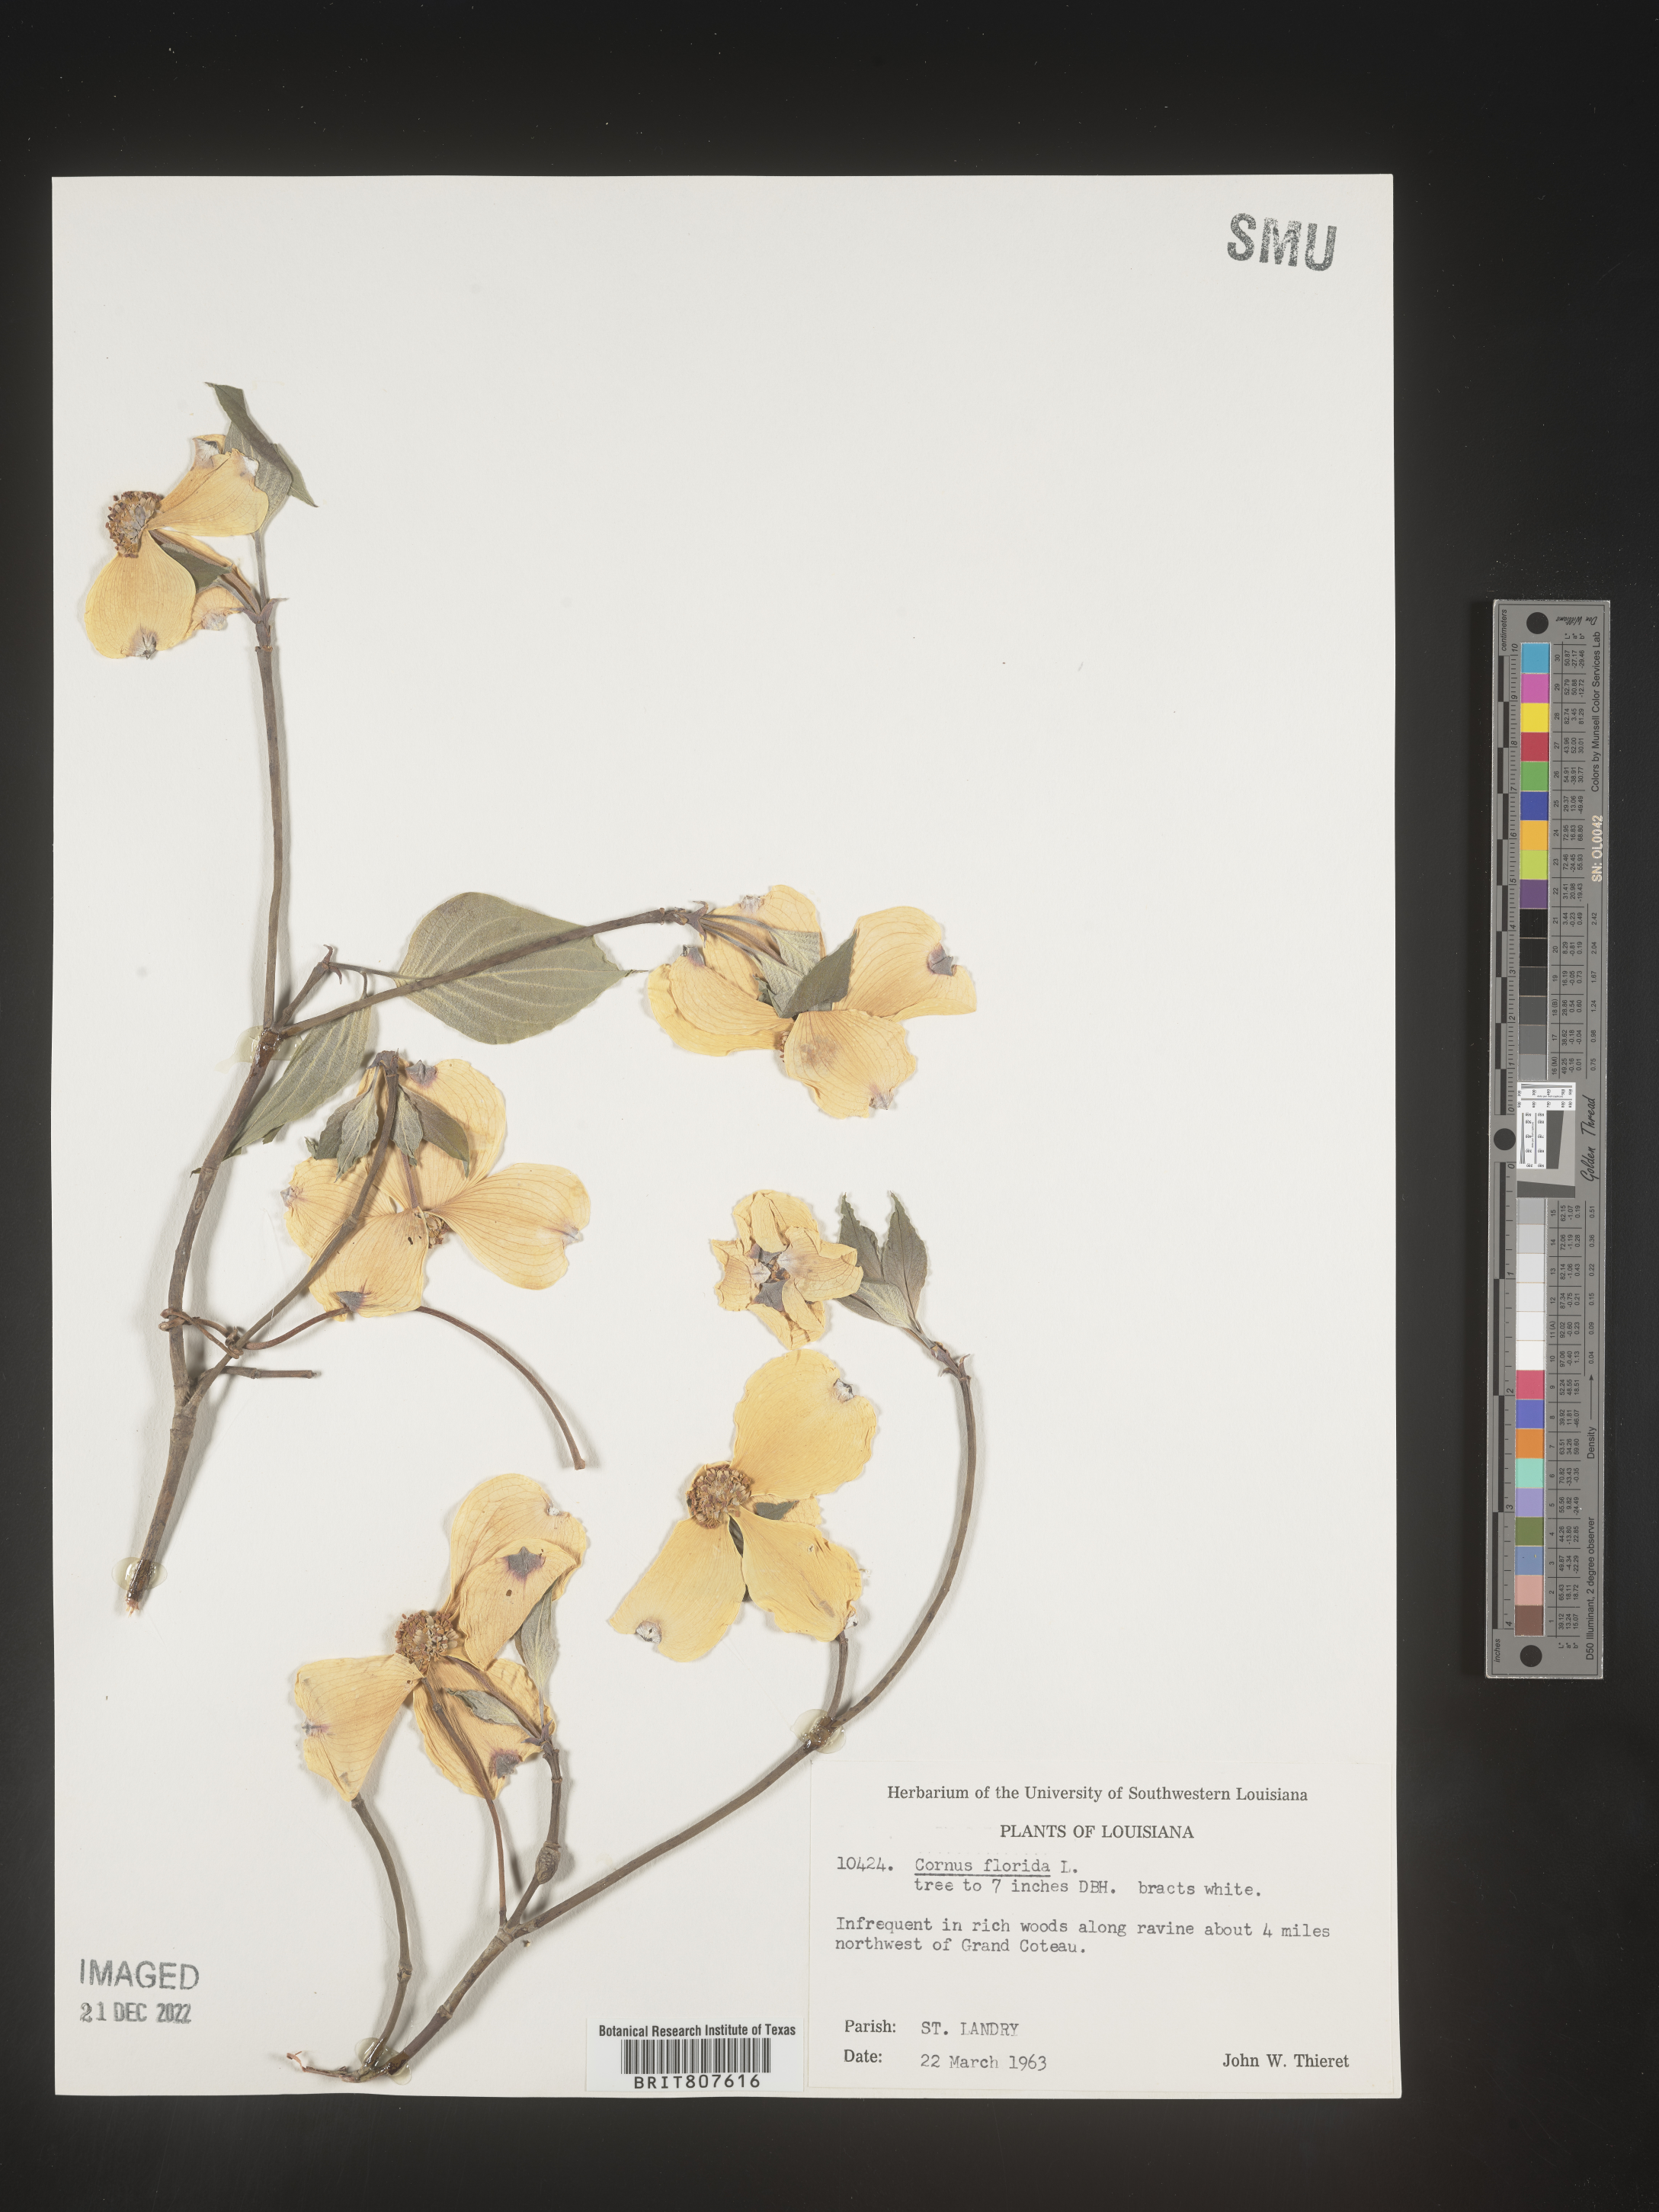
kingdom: Plantae
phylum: Tracheophyta
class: Magnoliopsida
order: Cornales
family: Cornaceae
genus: Cornus
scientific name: Cornus florida
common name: Flowering dogwood
